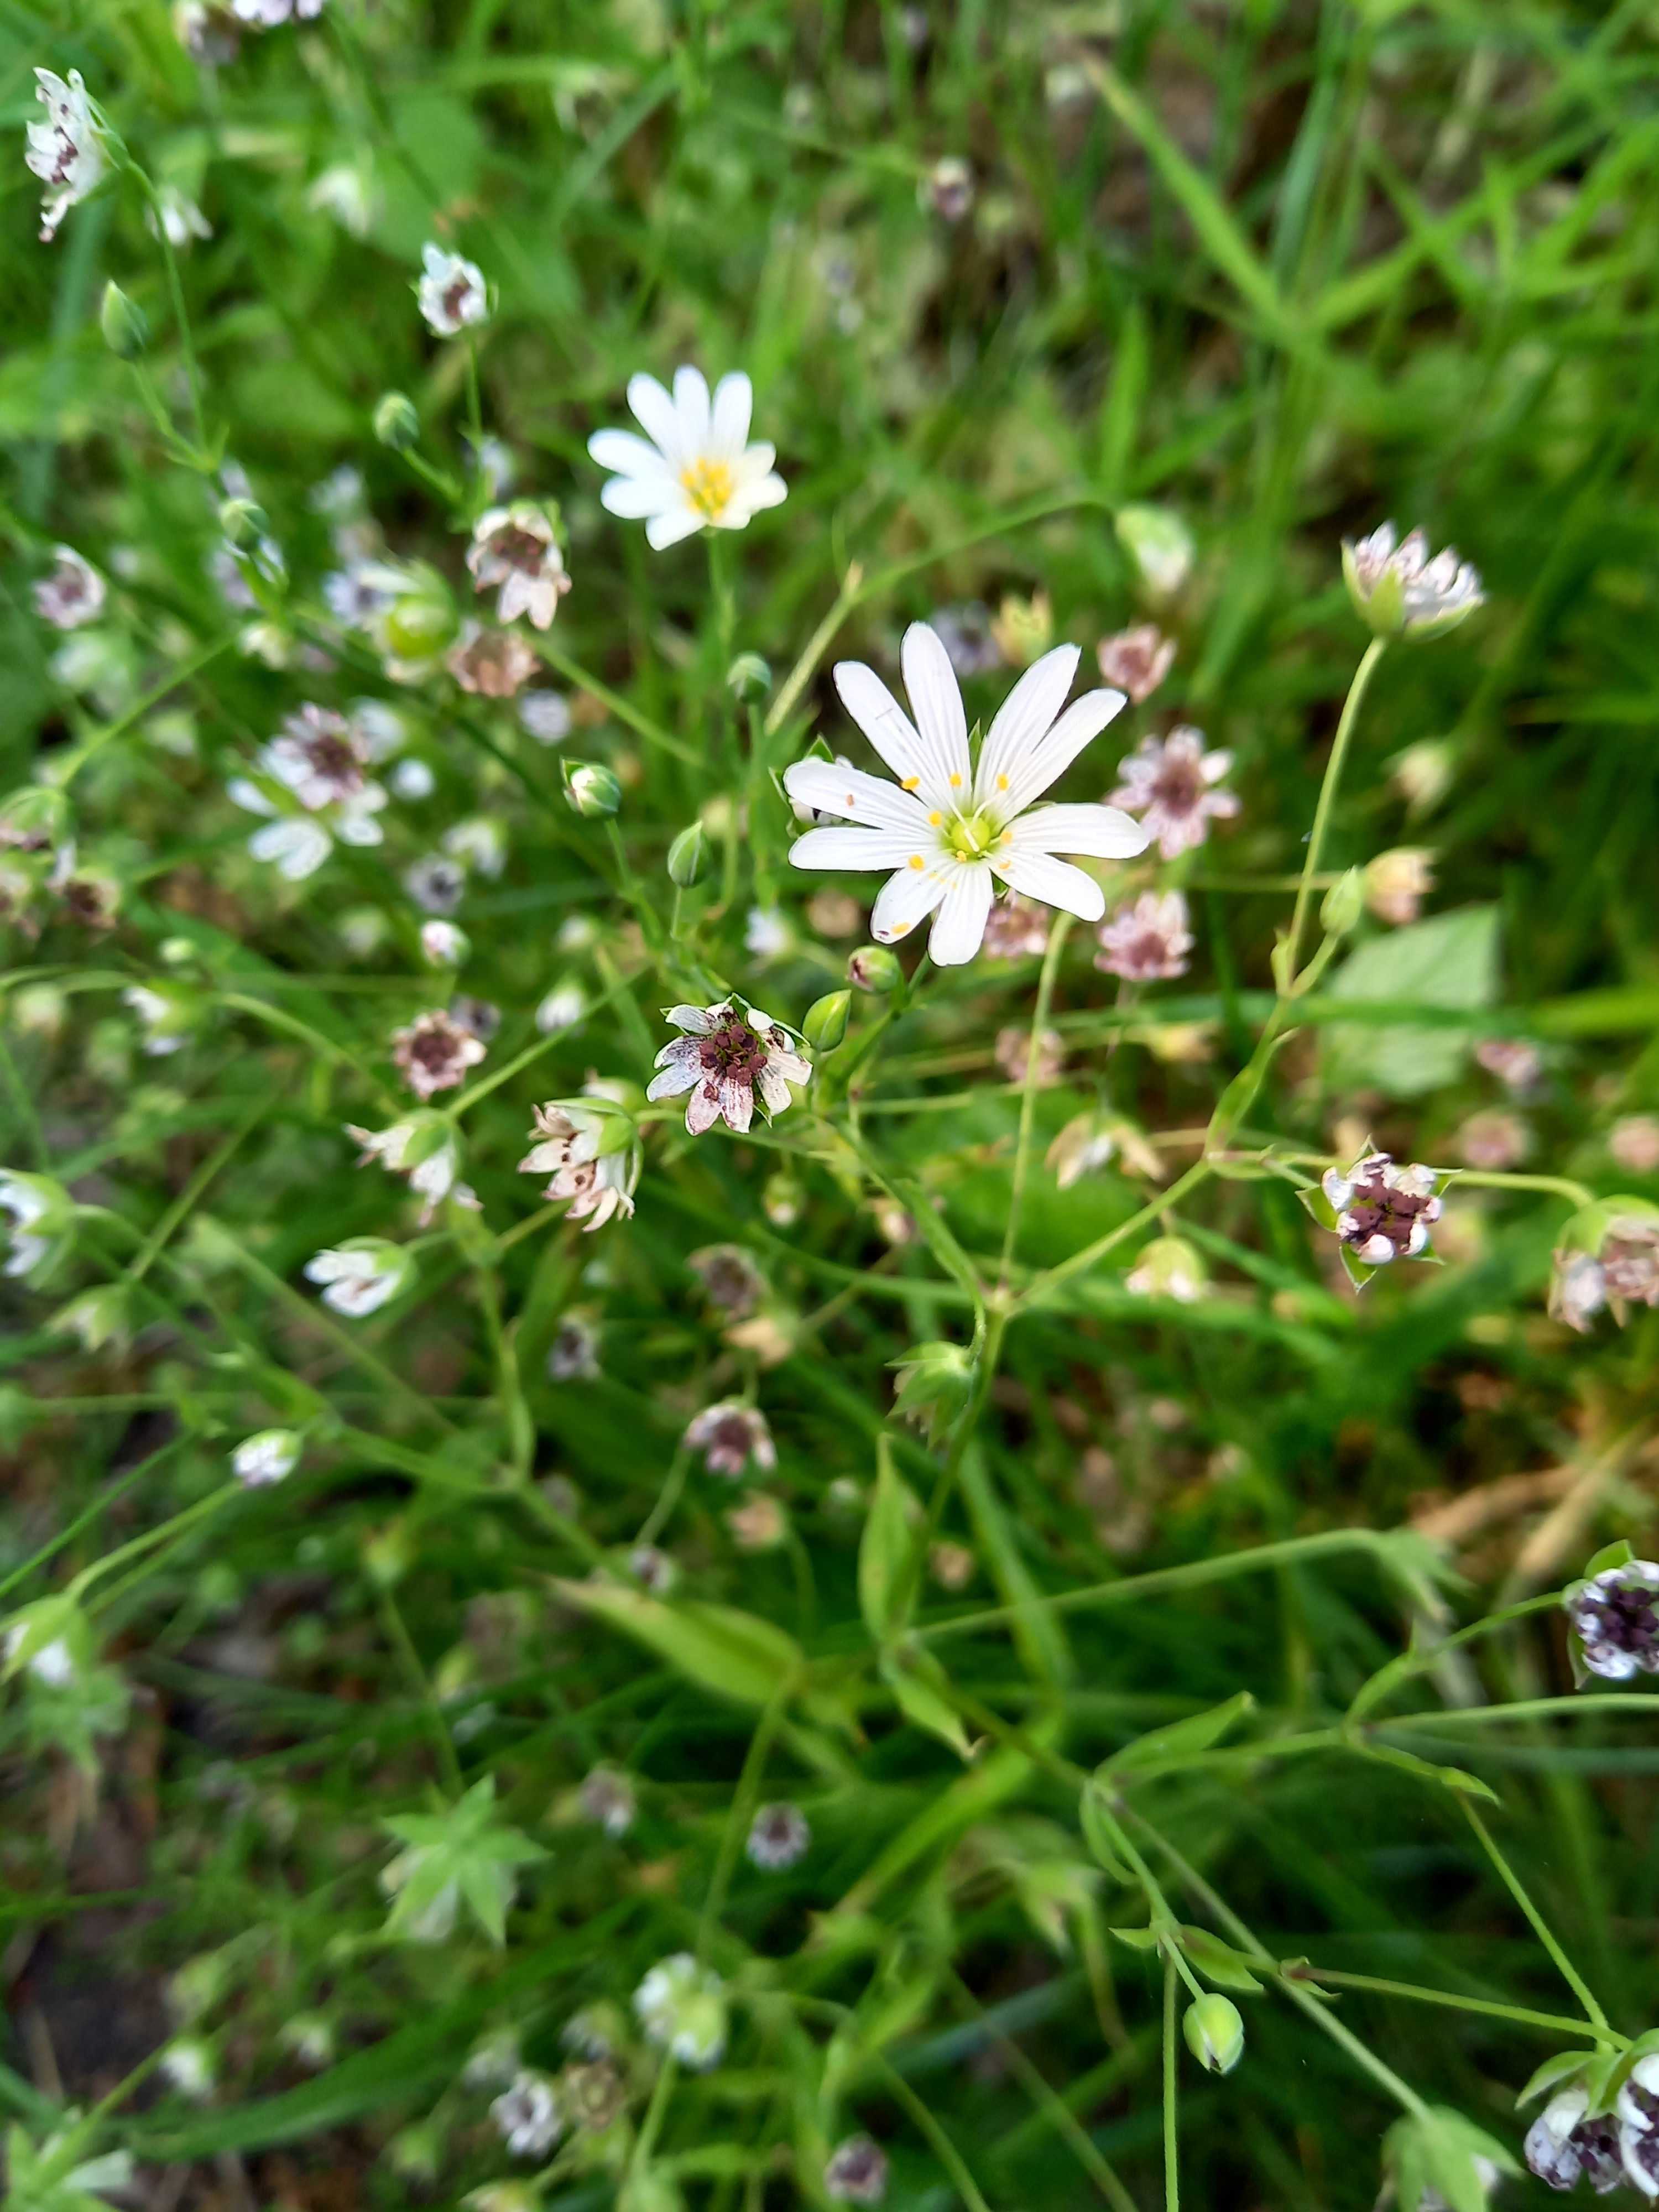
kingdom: Fungi
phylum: Basidiomycota
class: Microbotryomycetes
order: Microbotryales
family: Microbotryaceae
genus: Microbotryum
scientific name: Microbotryum stellariae
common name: fladstjerne-støvbladrust
